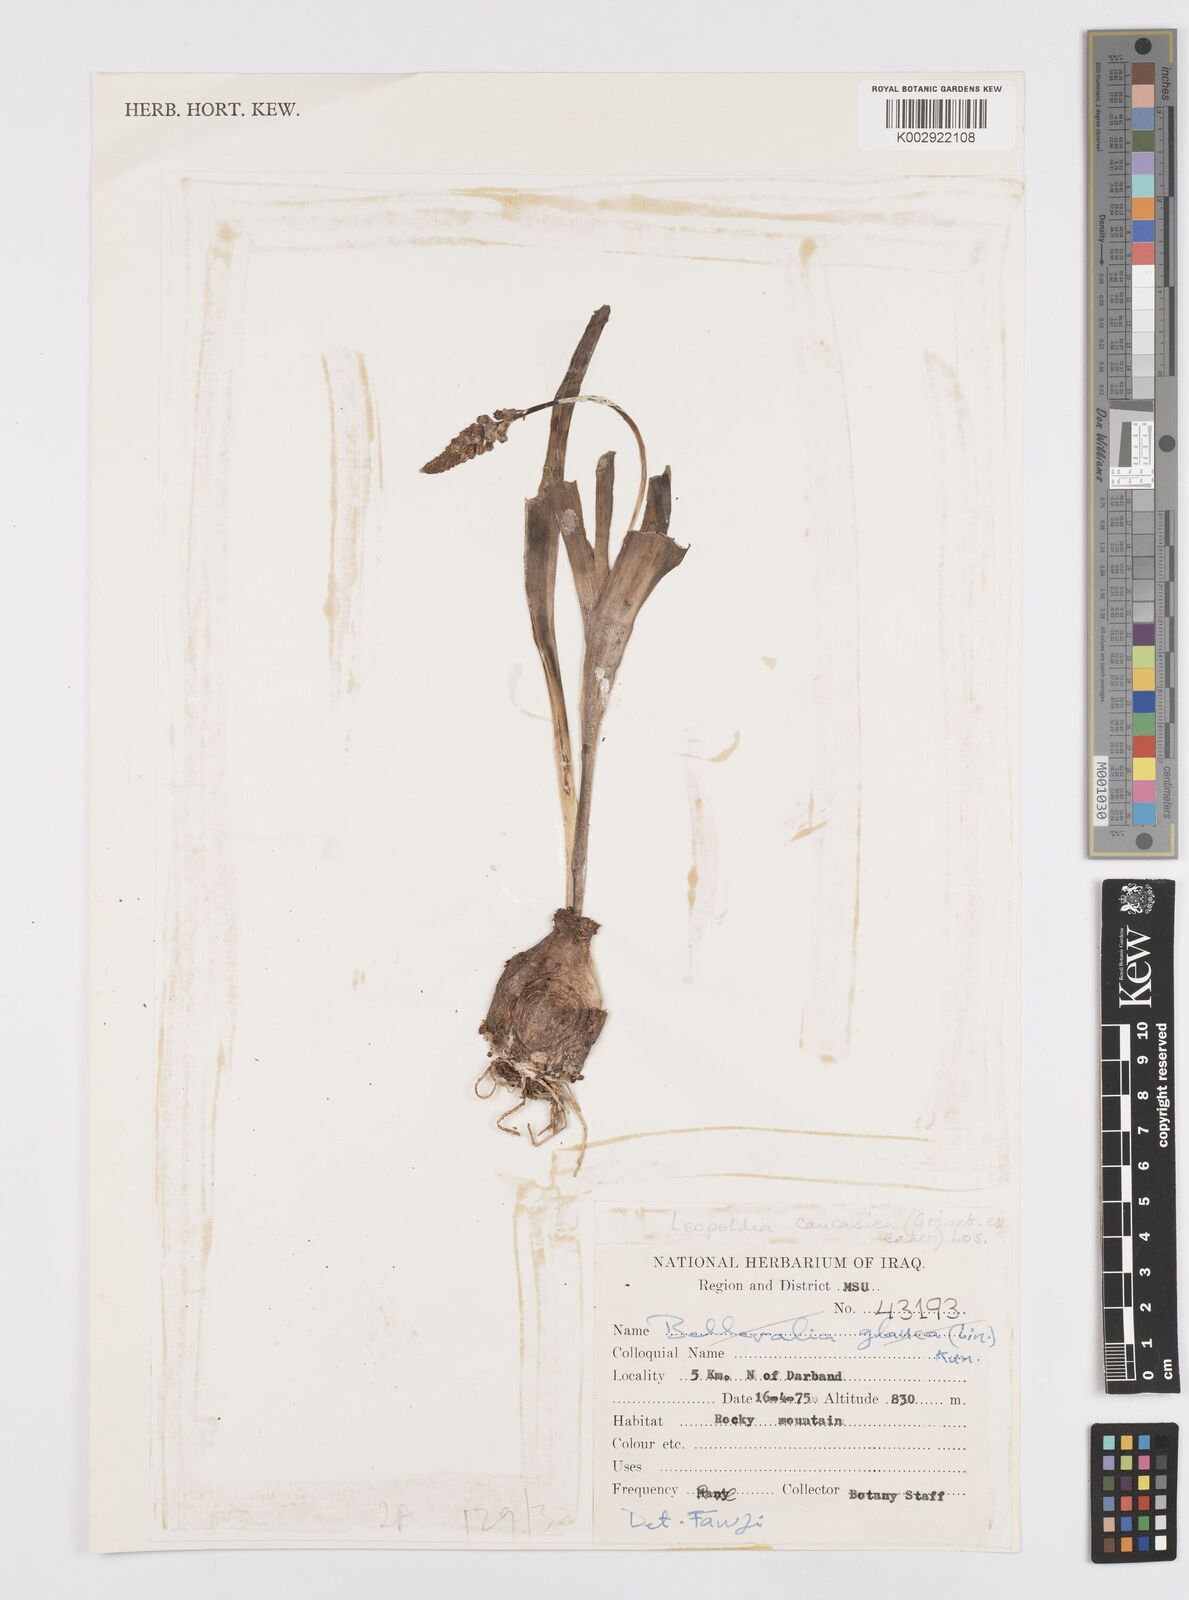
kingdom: Plantae
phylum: Tracheophyta
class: Liliopsida
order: Asparagales
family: Asparagaceae
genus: Muscari
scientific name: Muscari caucasicum
